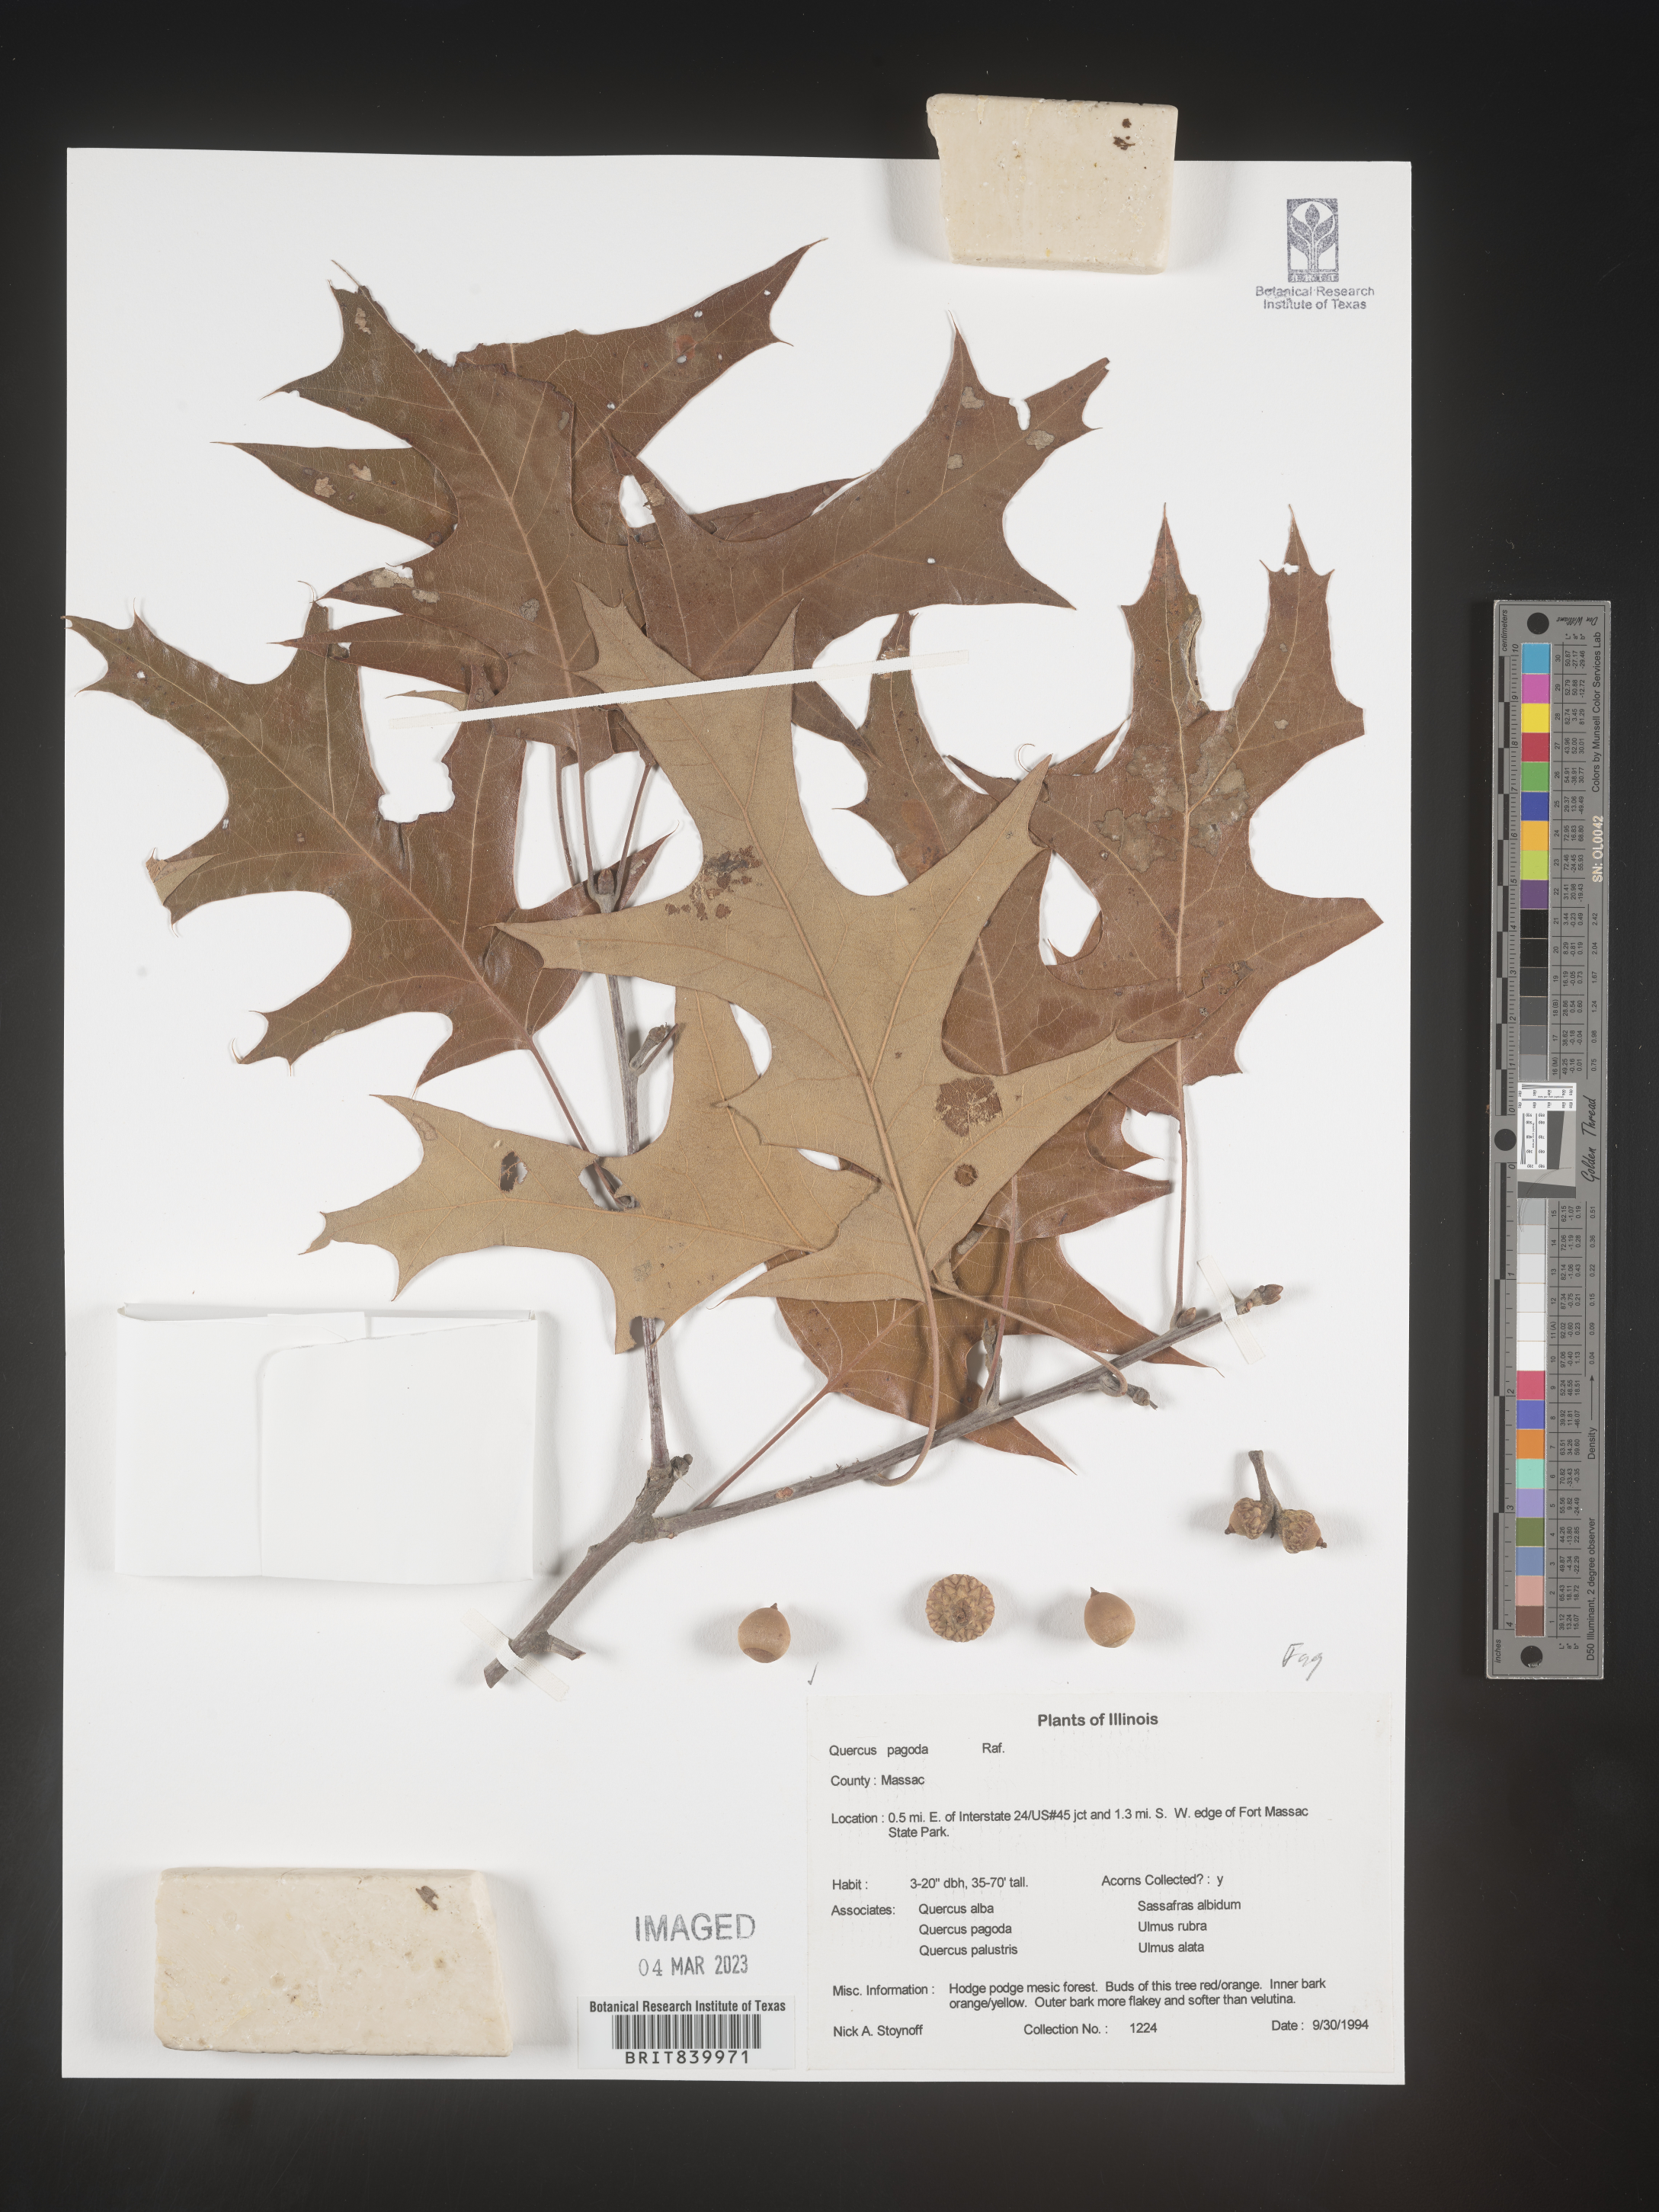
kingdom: Plantae
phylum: Tracheophyta
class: Magnoliopsida
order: Fagales
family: Fagaceae
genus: Quercus
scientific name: Quercus pagoda
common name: Cherrybark oak
